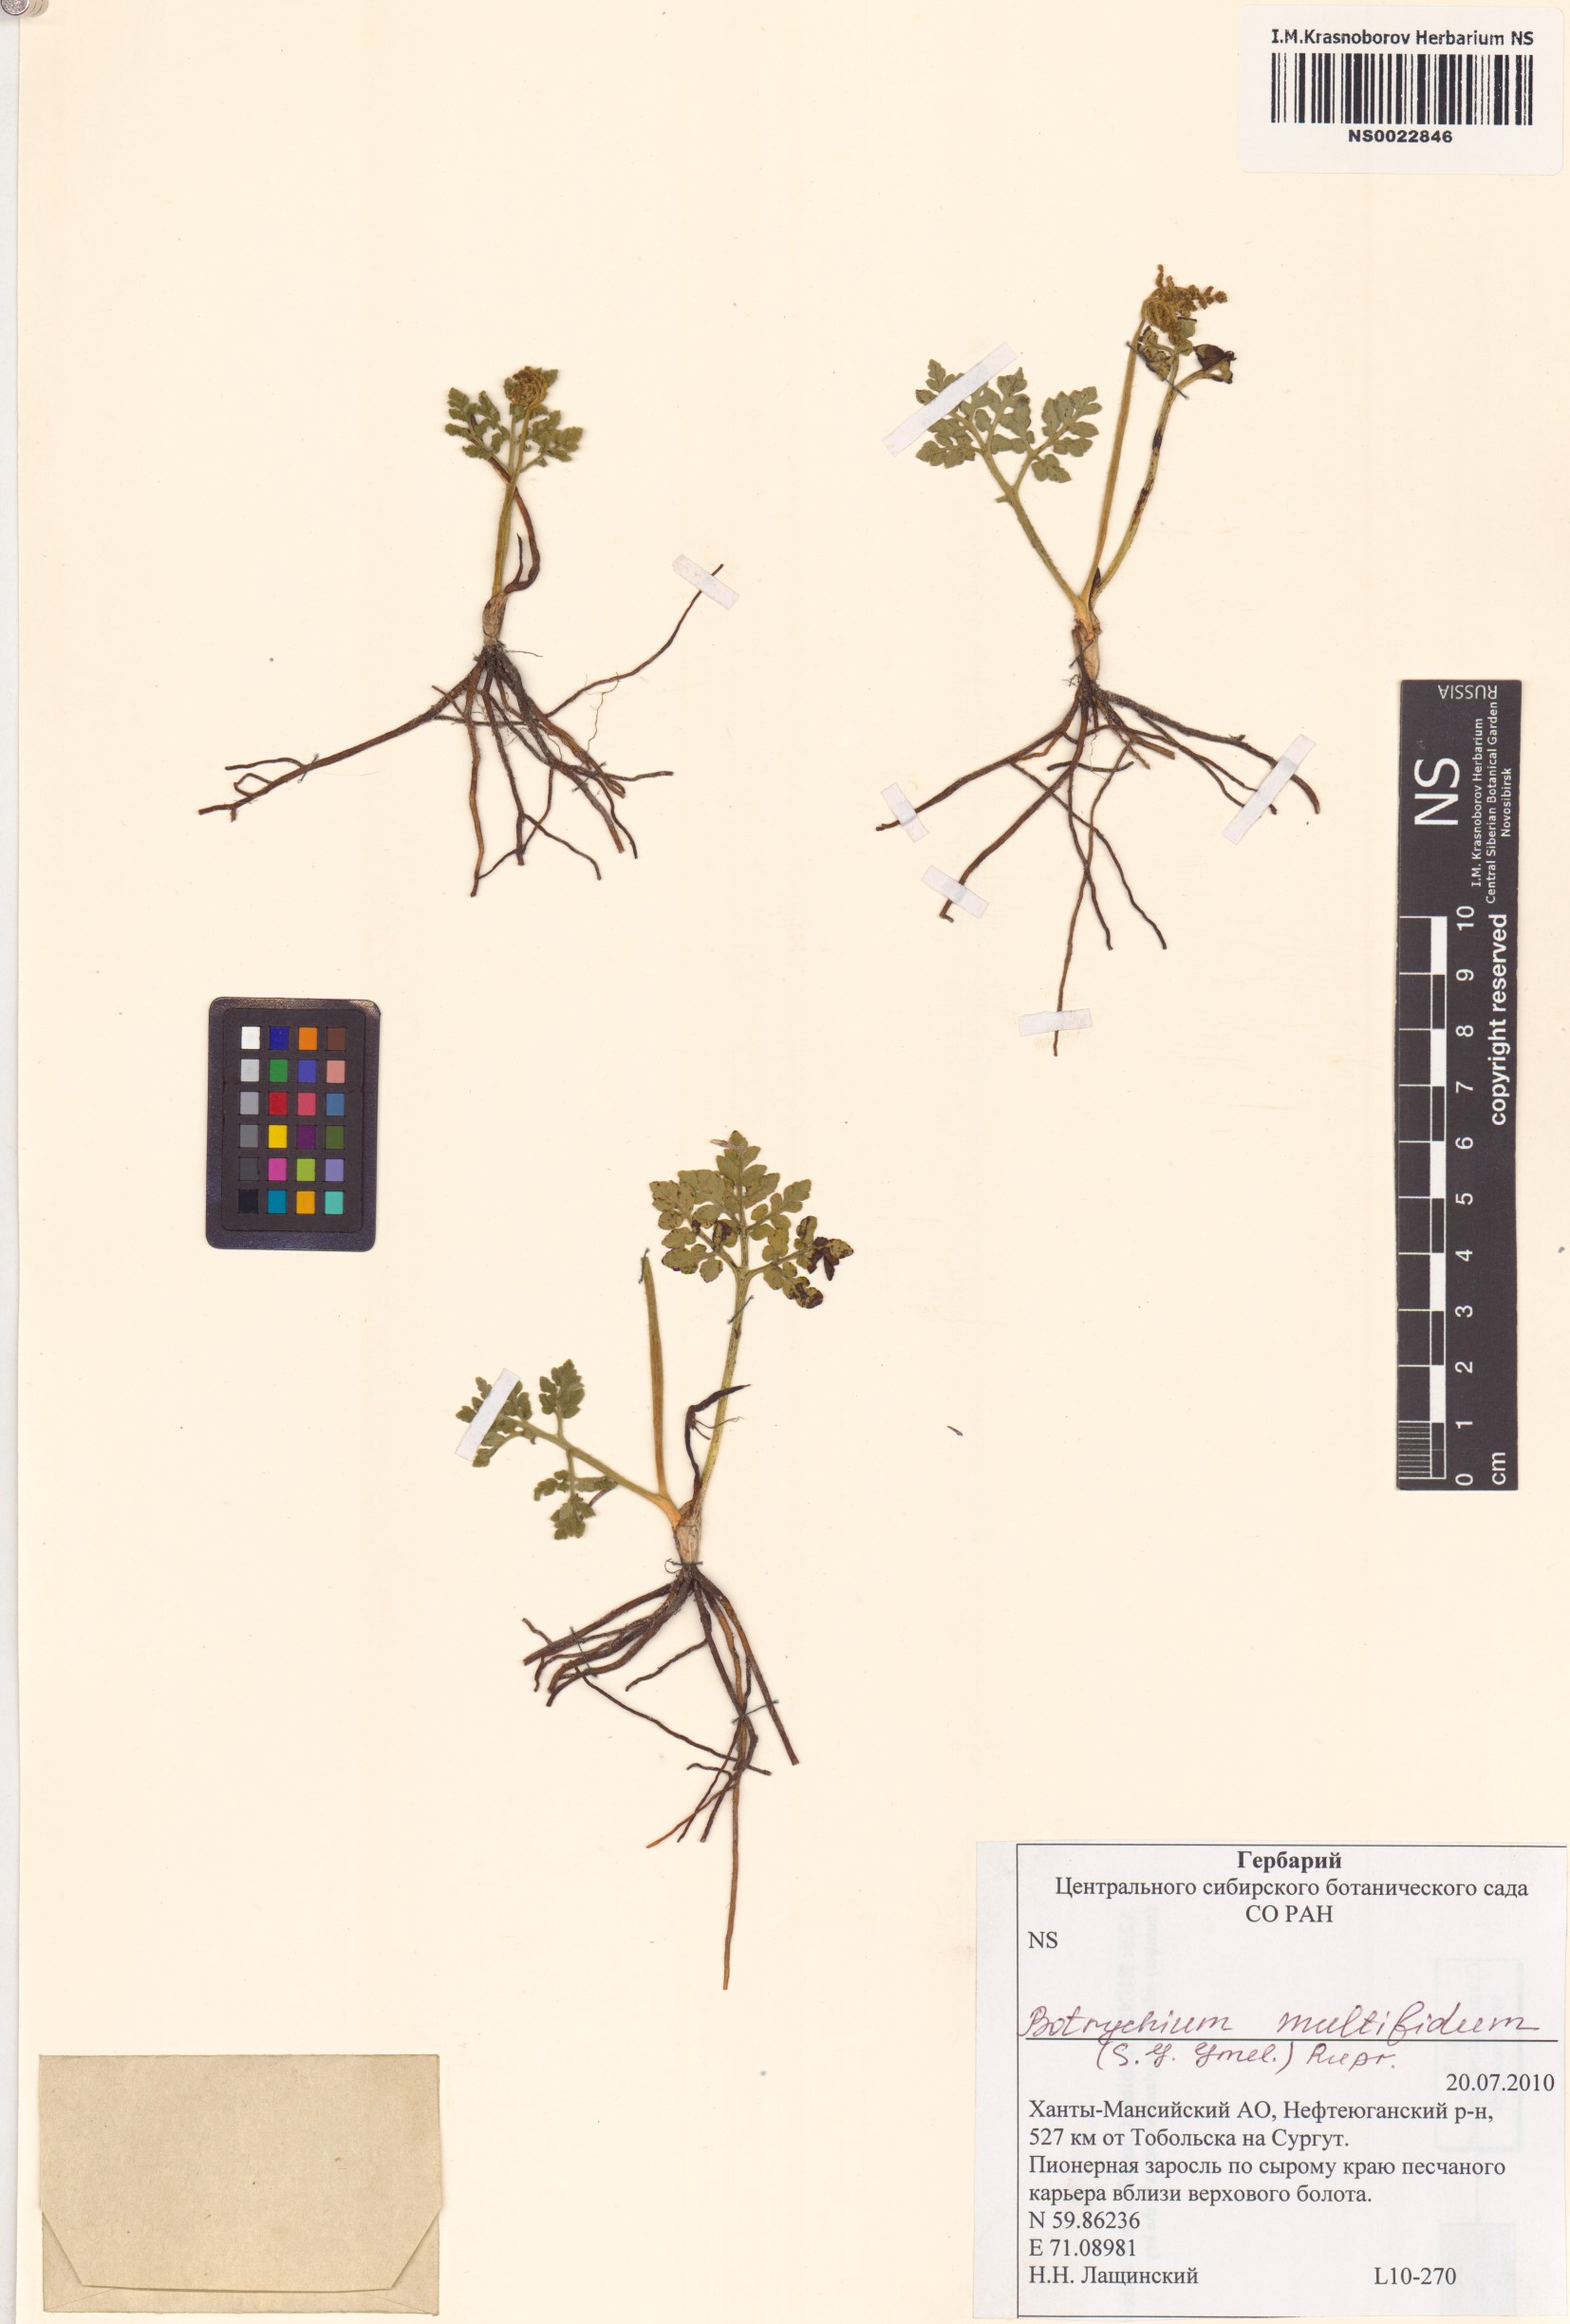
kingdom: Plantae
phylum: Tracheophyta
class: Polypodiopsida
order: Ophioglossales
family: Ophioglossaceae
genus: Sceptridium
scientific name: Sceptridium multifidum
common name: Leathery grape fern
